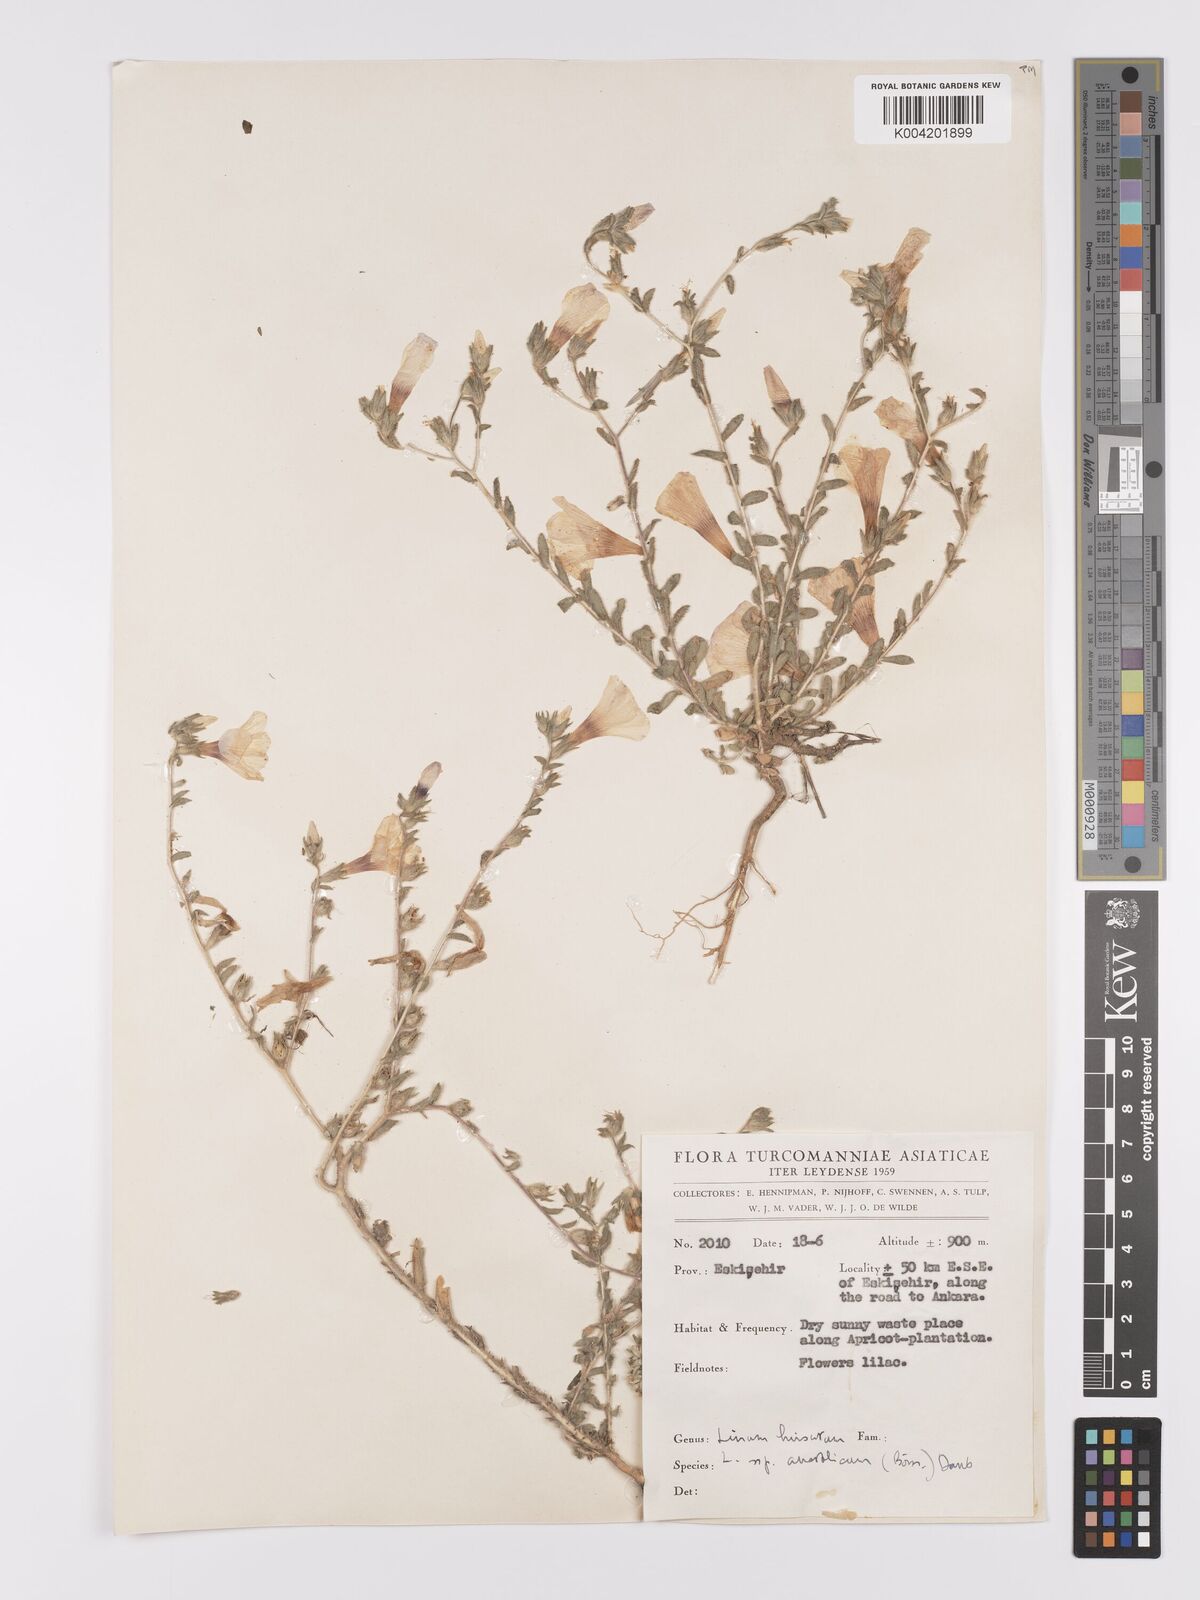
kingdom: Plantae
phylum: Tracheophyta
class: Magnoliopsida
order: Malpighiales
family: Linaceae
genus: Linum
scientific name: Linum
